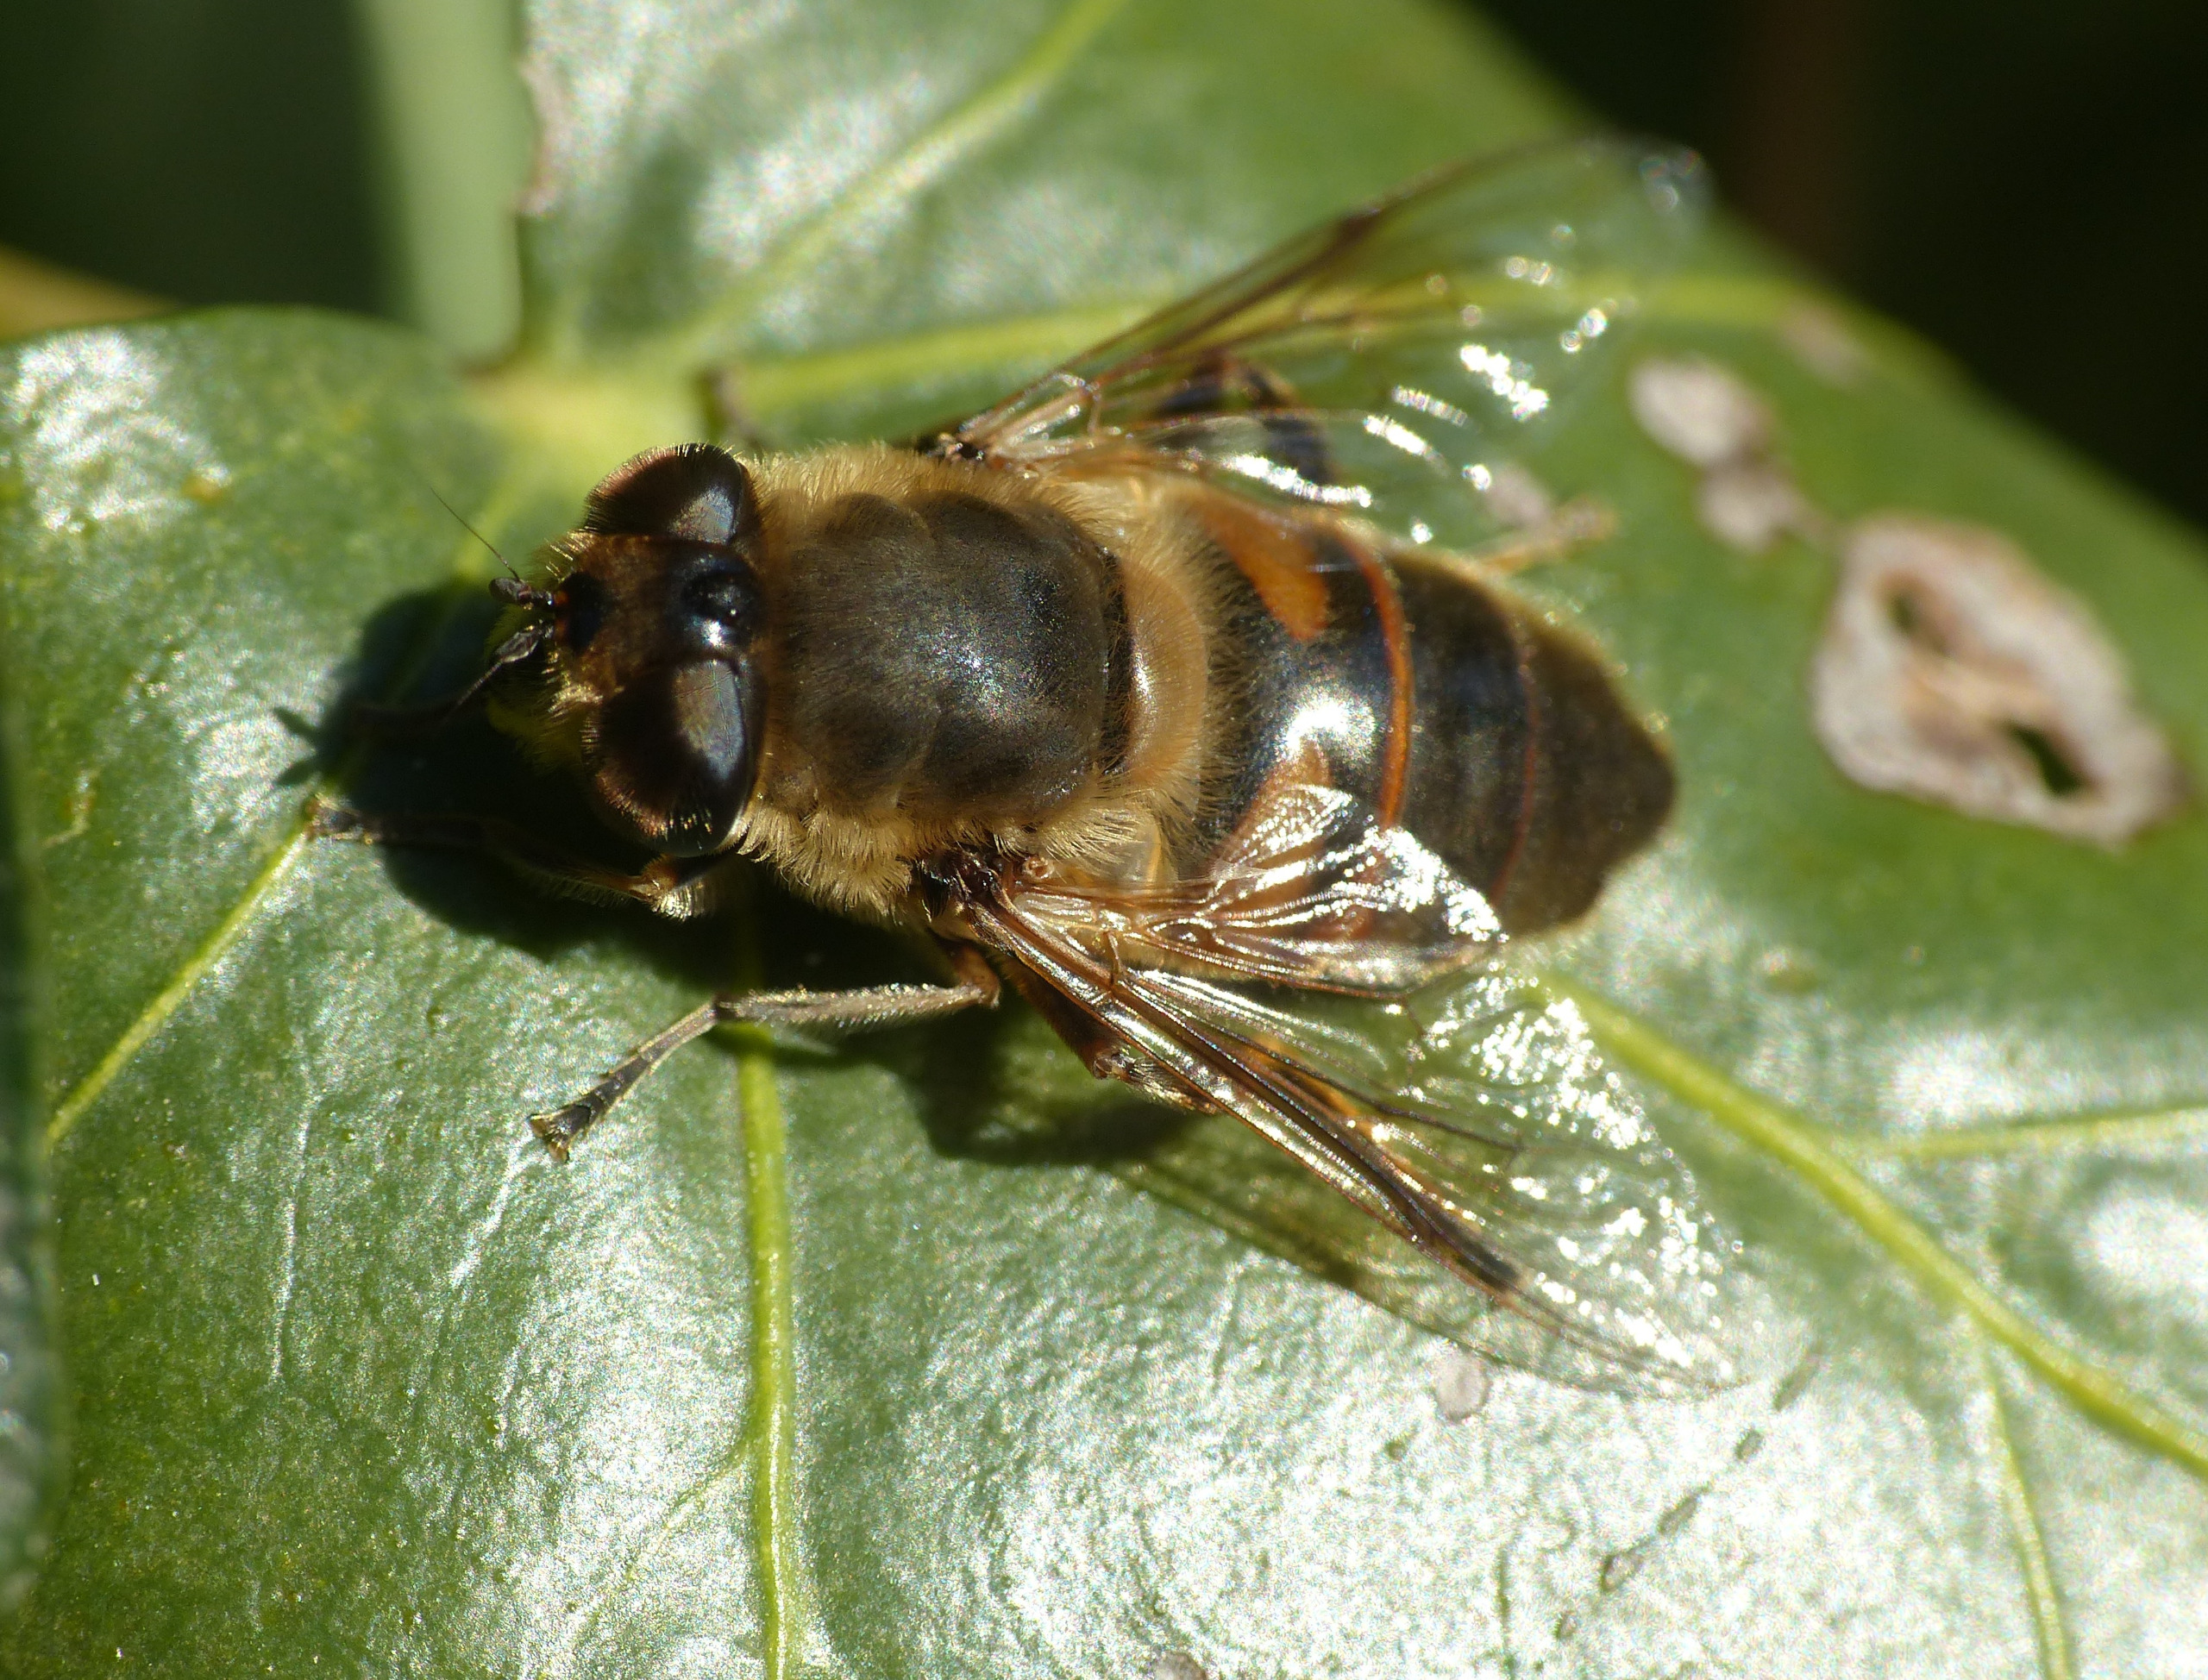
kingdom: Animalia
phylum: Arthropoda
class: Insecta
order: Diptera
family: Syrphidae
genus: Eristalis
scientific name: Eristalis tenax
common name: Droneflue
